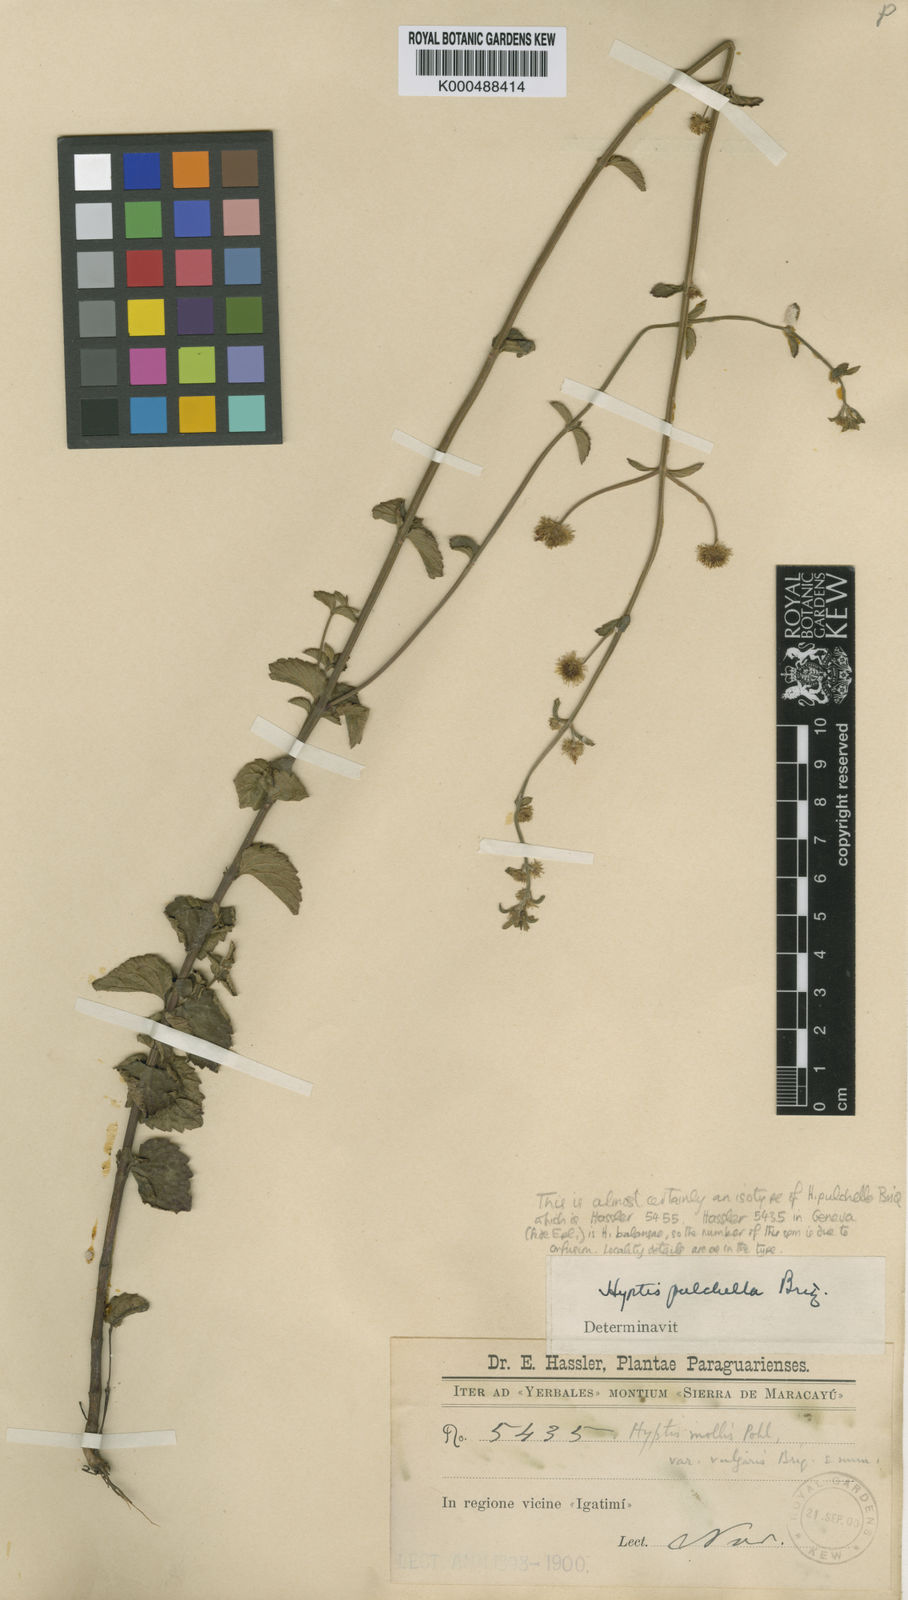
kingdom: Plantae
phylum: Tracheophyta
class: Magnoliopsida
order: Lamiales
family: Lamiaceae
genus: Hyptis
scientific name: Hyptis pulchella
